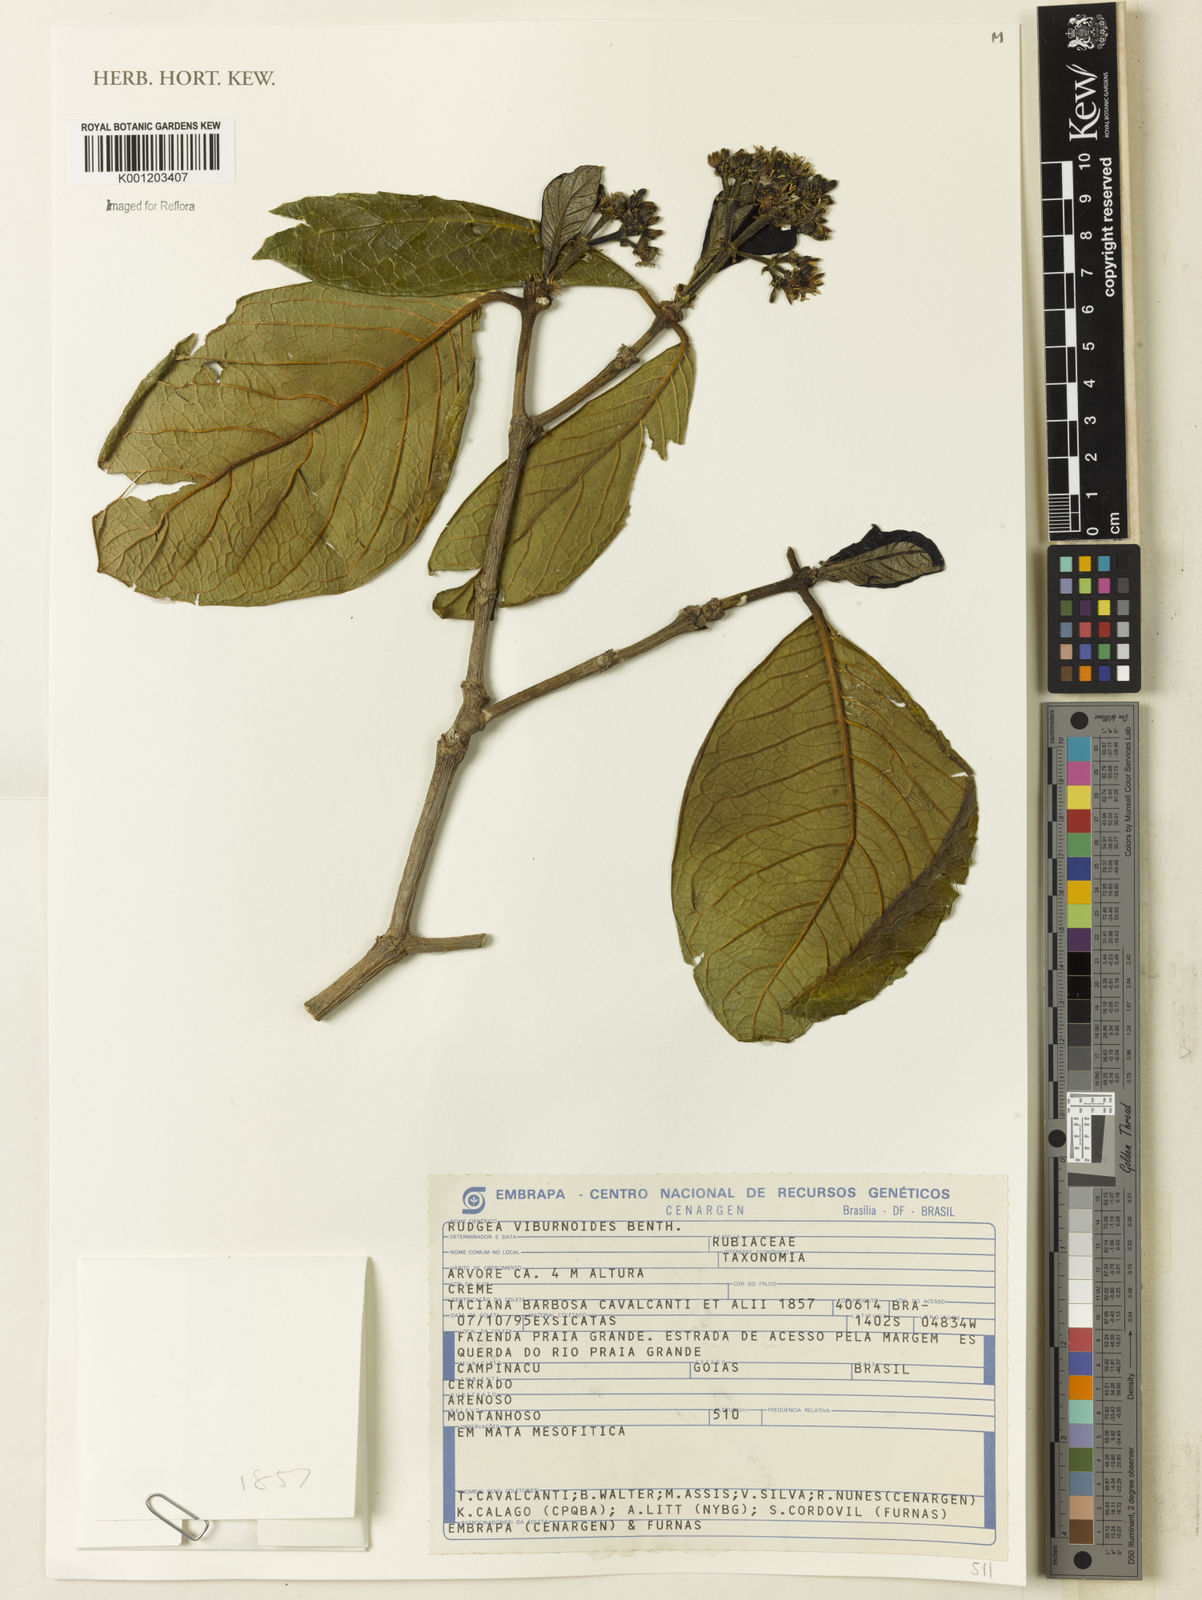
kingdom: Plantae
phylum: Tracheophyta
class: Magnoliopsida
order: Gentianales
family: Rubiaceae
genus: Rudgea
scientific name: Rudgea viburnoides
